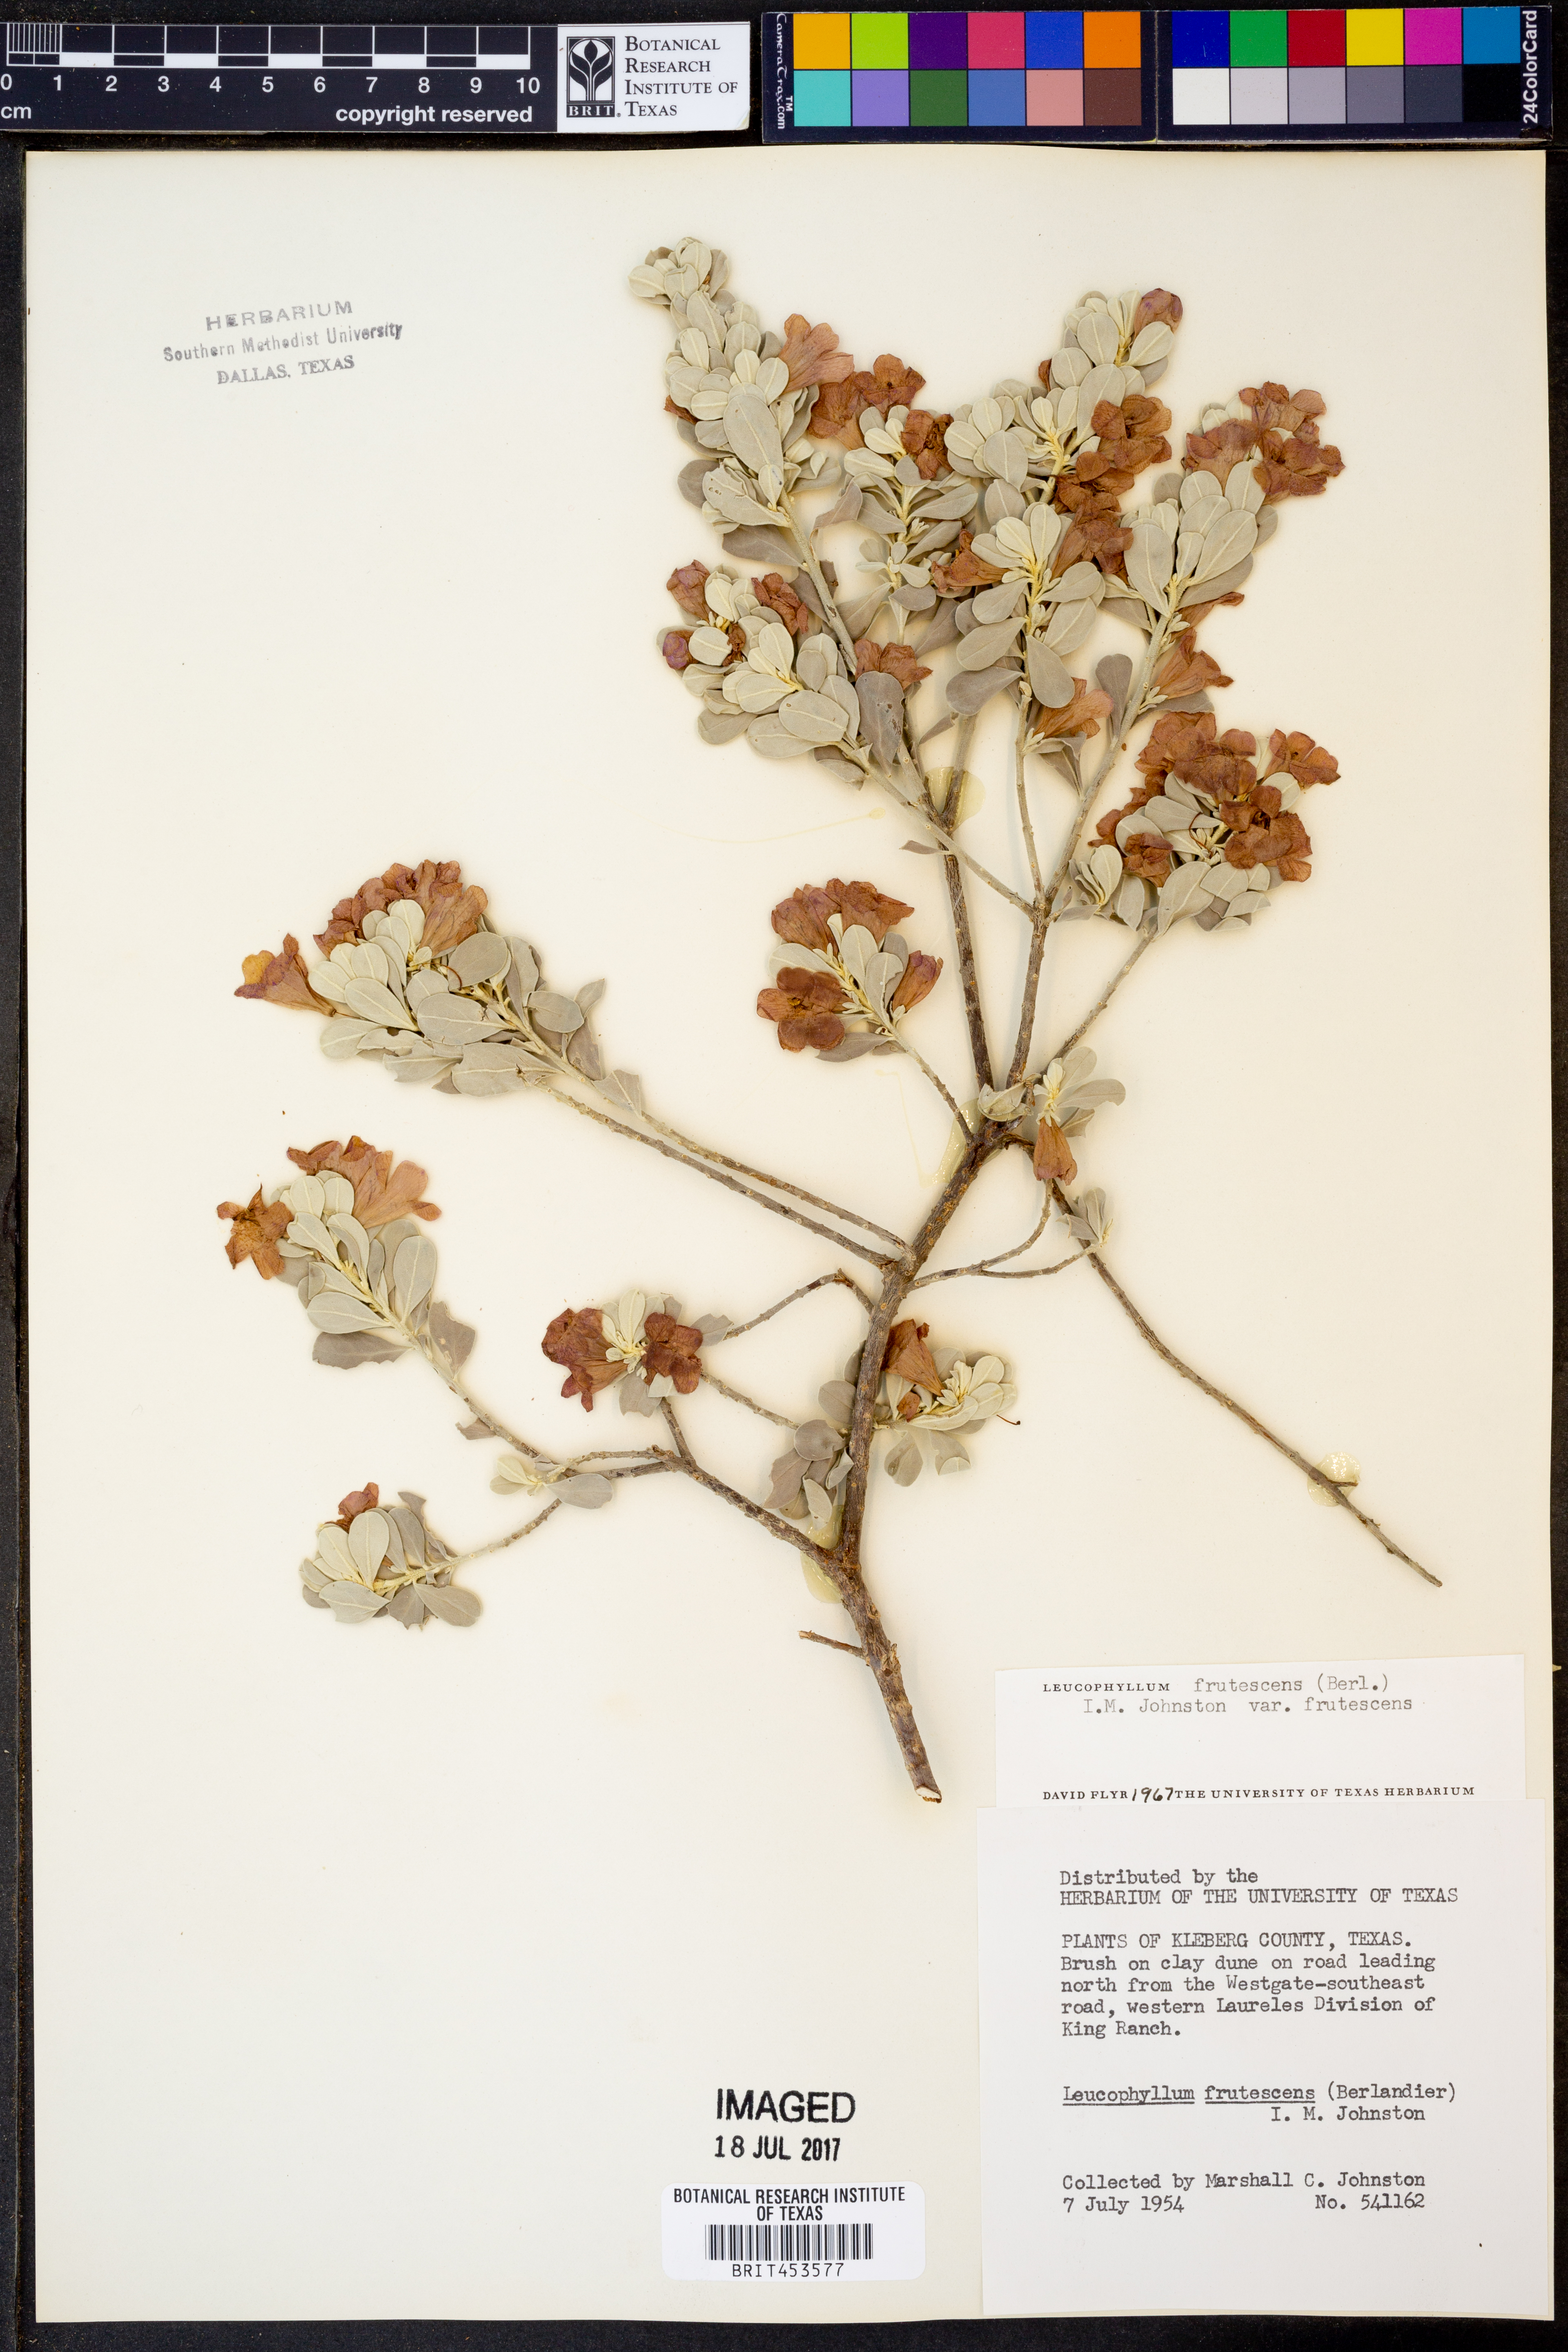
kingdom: Plantae
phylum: Tracheophyta
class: Magnoliopsida
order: Lamiales
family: Scrophulariaceae
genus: Leucophyllum
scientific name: Leucophyllum frutescens
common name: Texas silverleaf
